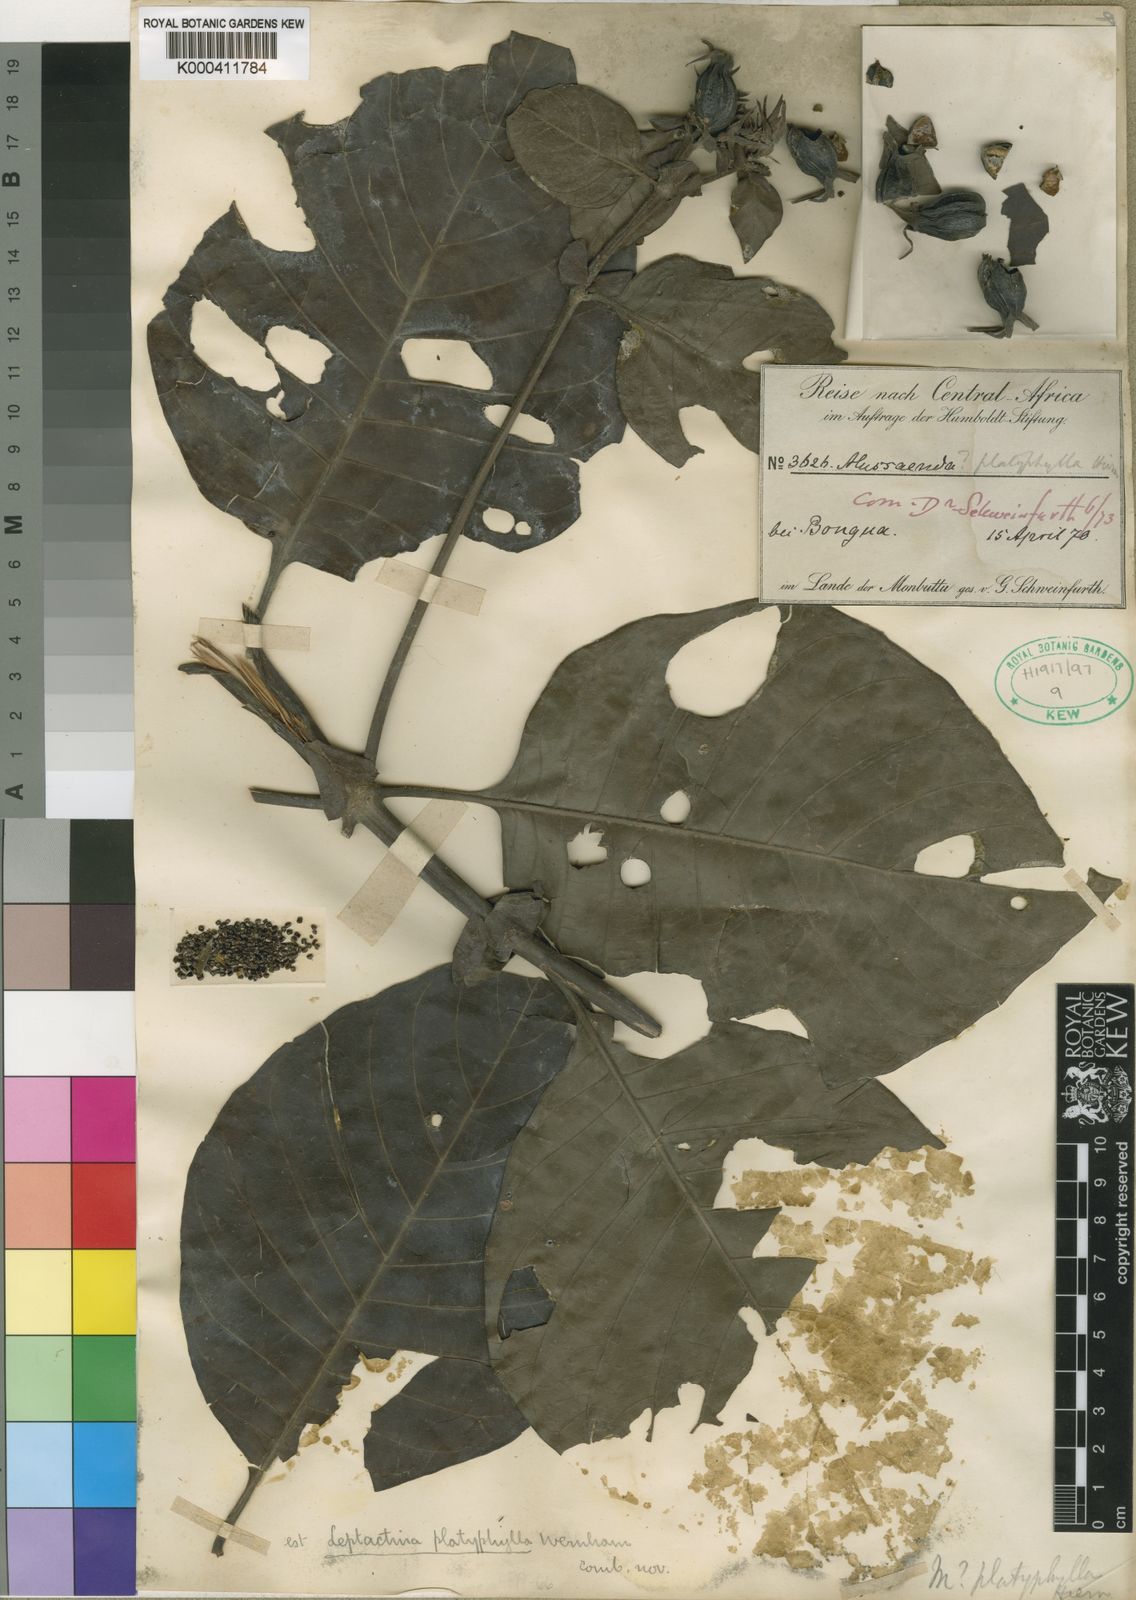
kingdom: Plantae
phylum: Tracheophyta
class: Magnoliopsida
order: Gentianales
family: Rubiaceae
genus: Leptactina
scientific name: Leptactina platyphylla
